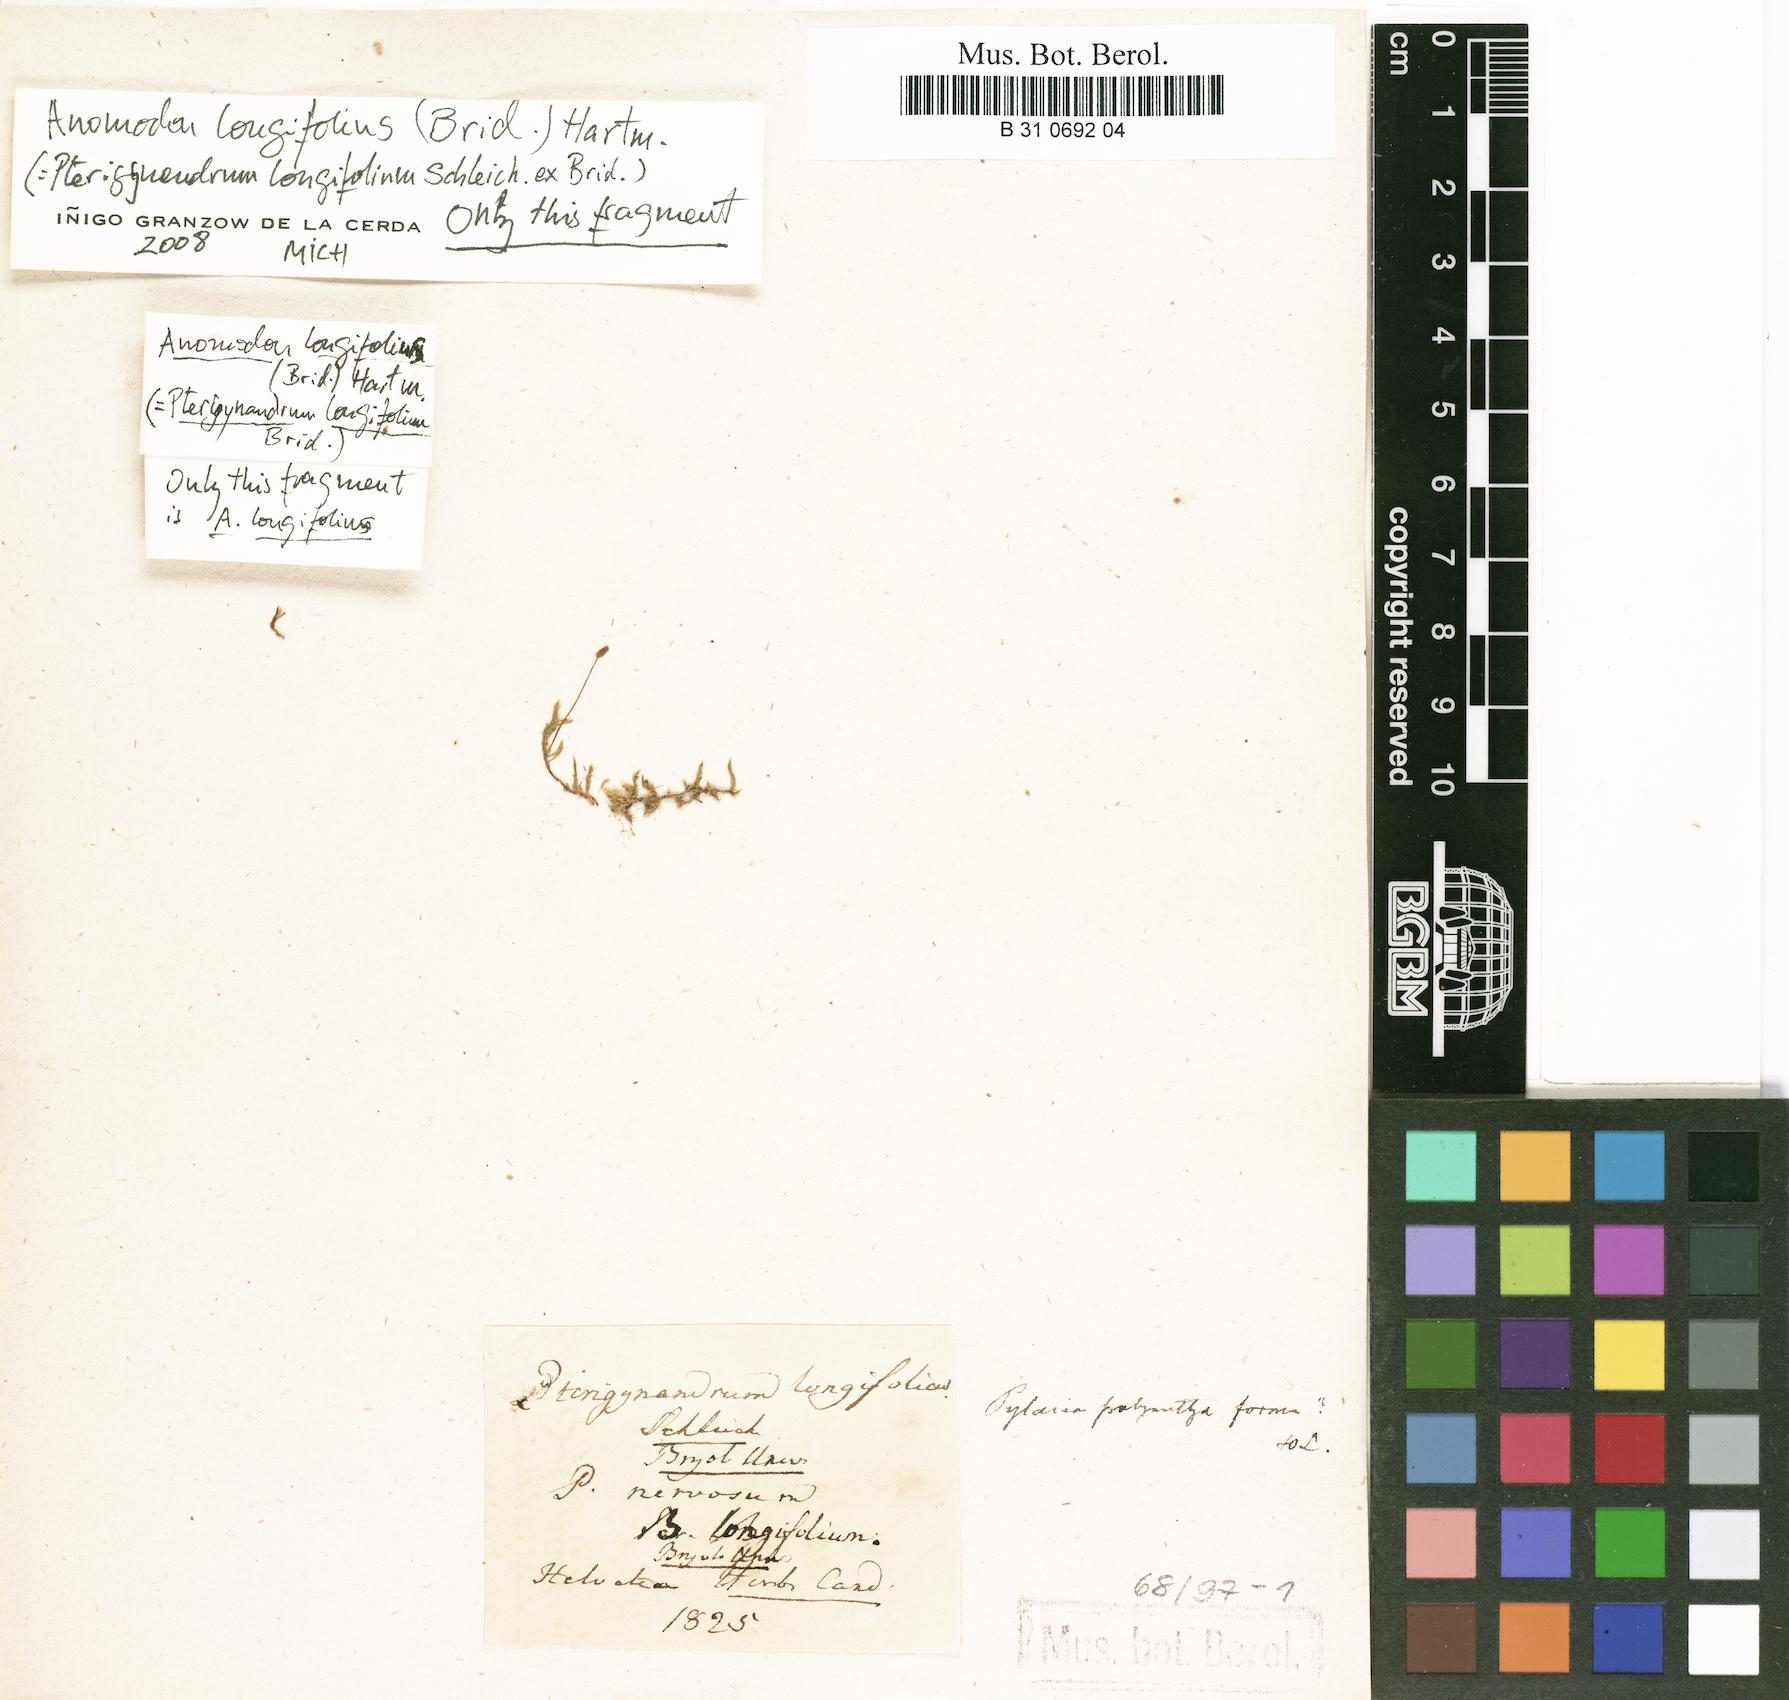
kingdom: Plantae
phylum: Bryophyta
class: Bryopsida
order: Hypnales
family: Pseudoleskeellaceae
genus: Pseudoleskeella
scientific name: Pseudoleskeella nervosa
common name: Nerved leske's moss
